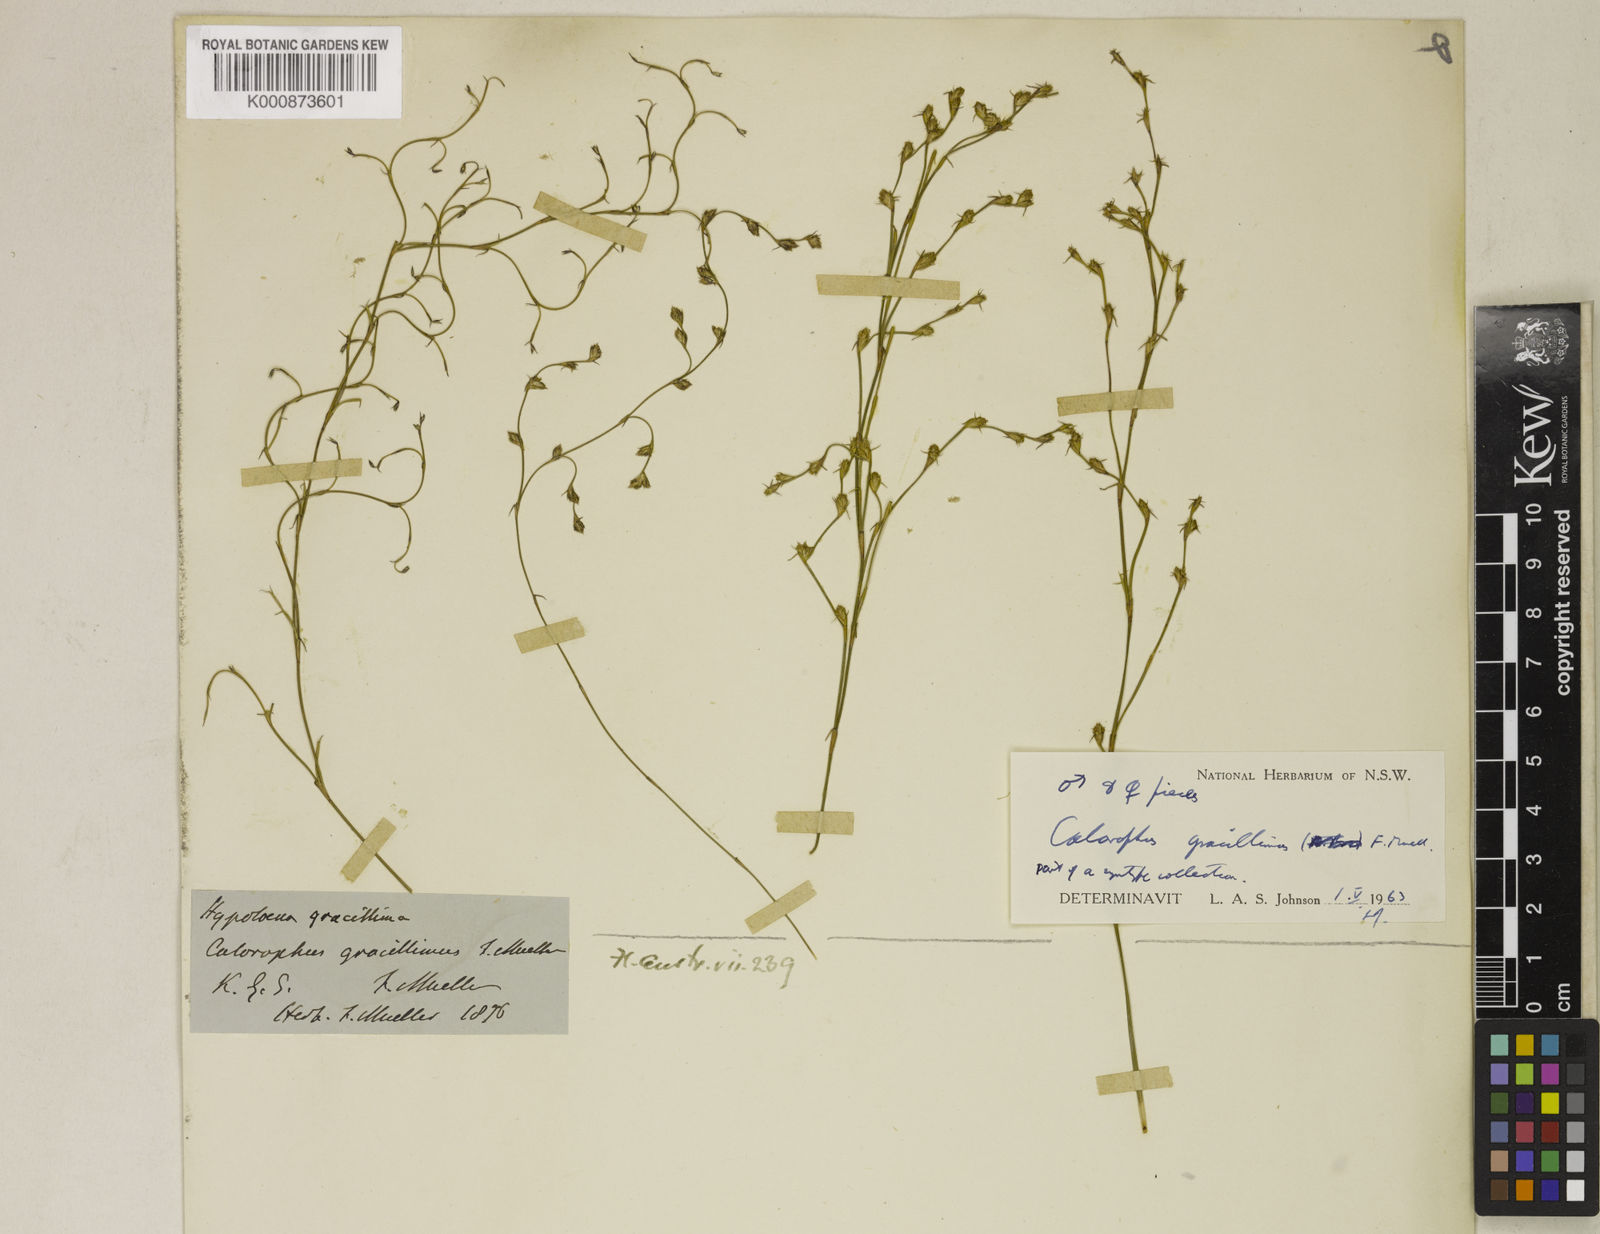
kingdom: Plantae
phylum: Tracheophyta
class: Liliopsida
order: Poales
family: Restionaceae
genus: Empodisma
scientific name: Empodisma gracillimum
